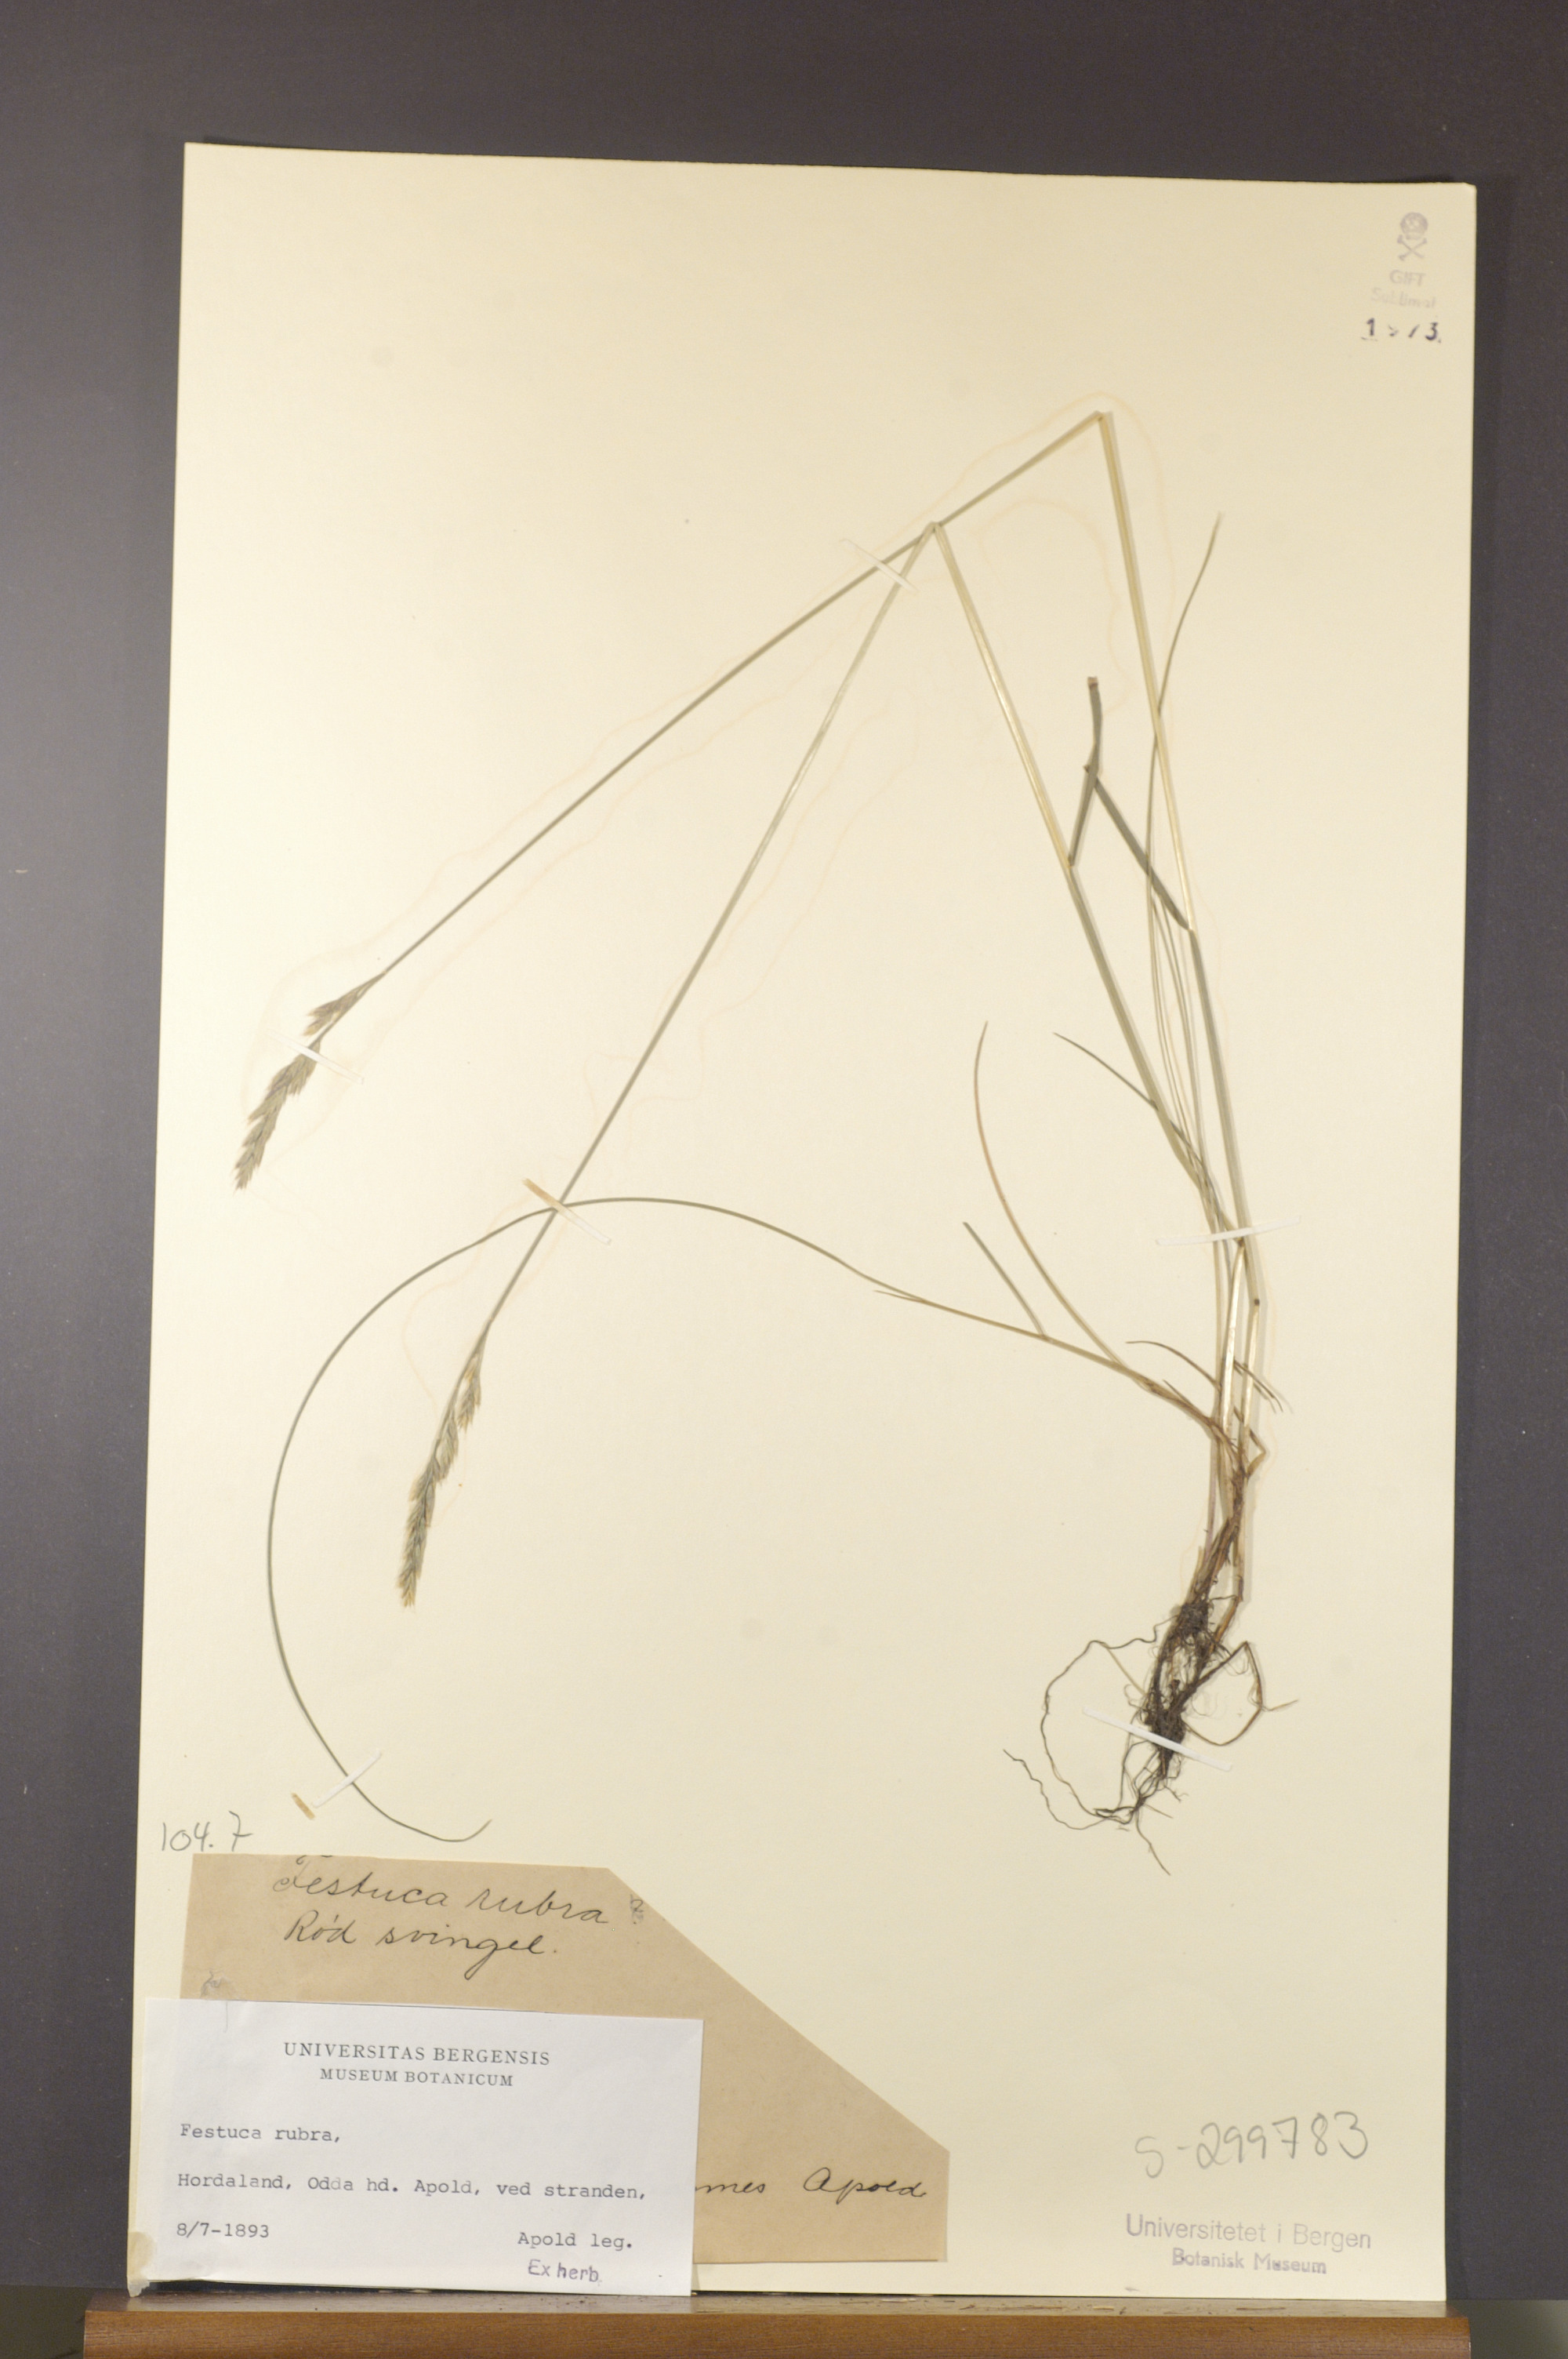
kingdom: Plantae
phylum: Tracheophyta
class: Liliopsida
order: Poales
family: Poaceae
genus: Festuca
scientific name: Festuca rubra
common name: Red fescue
